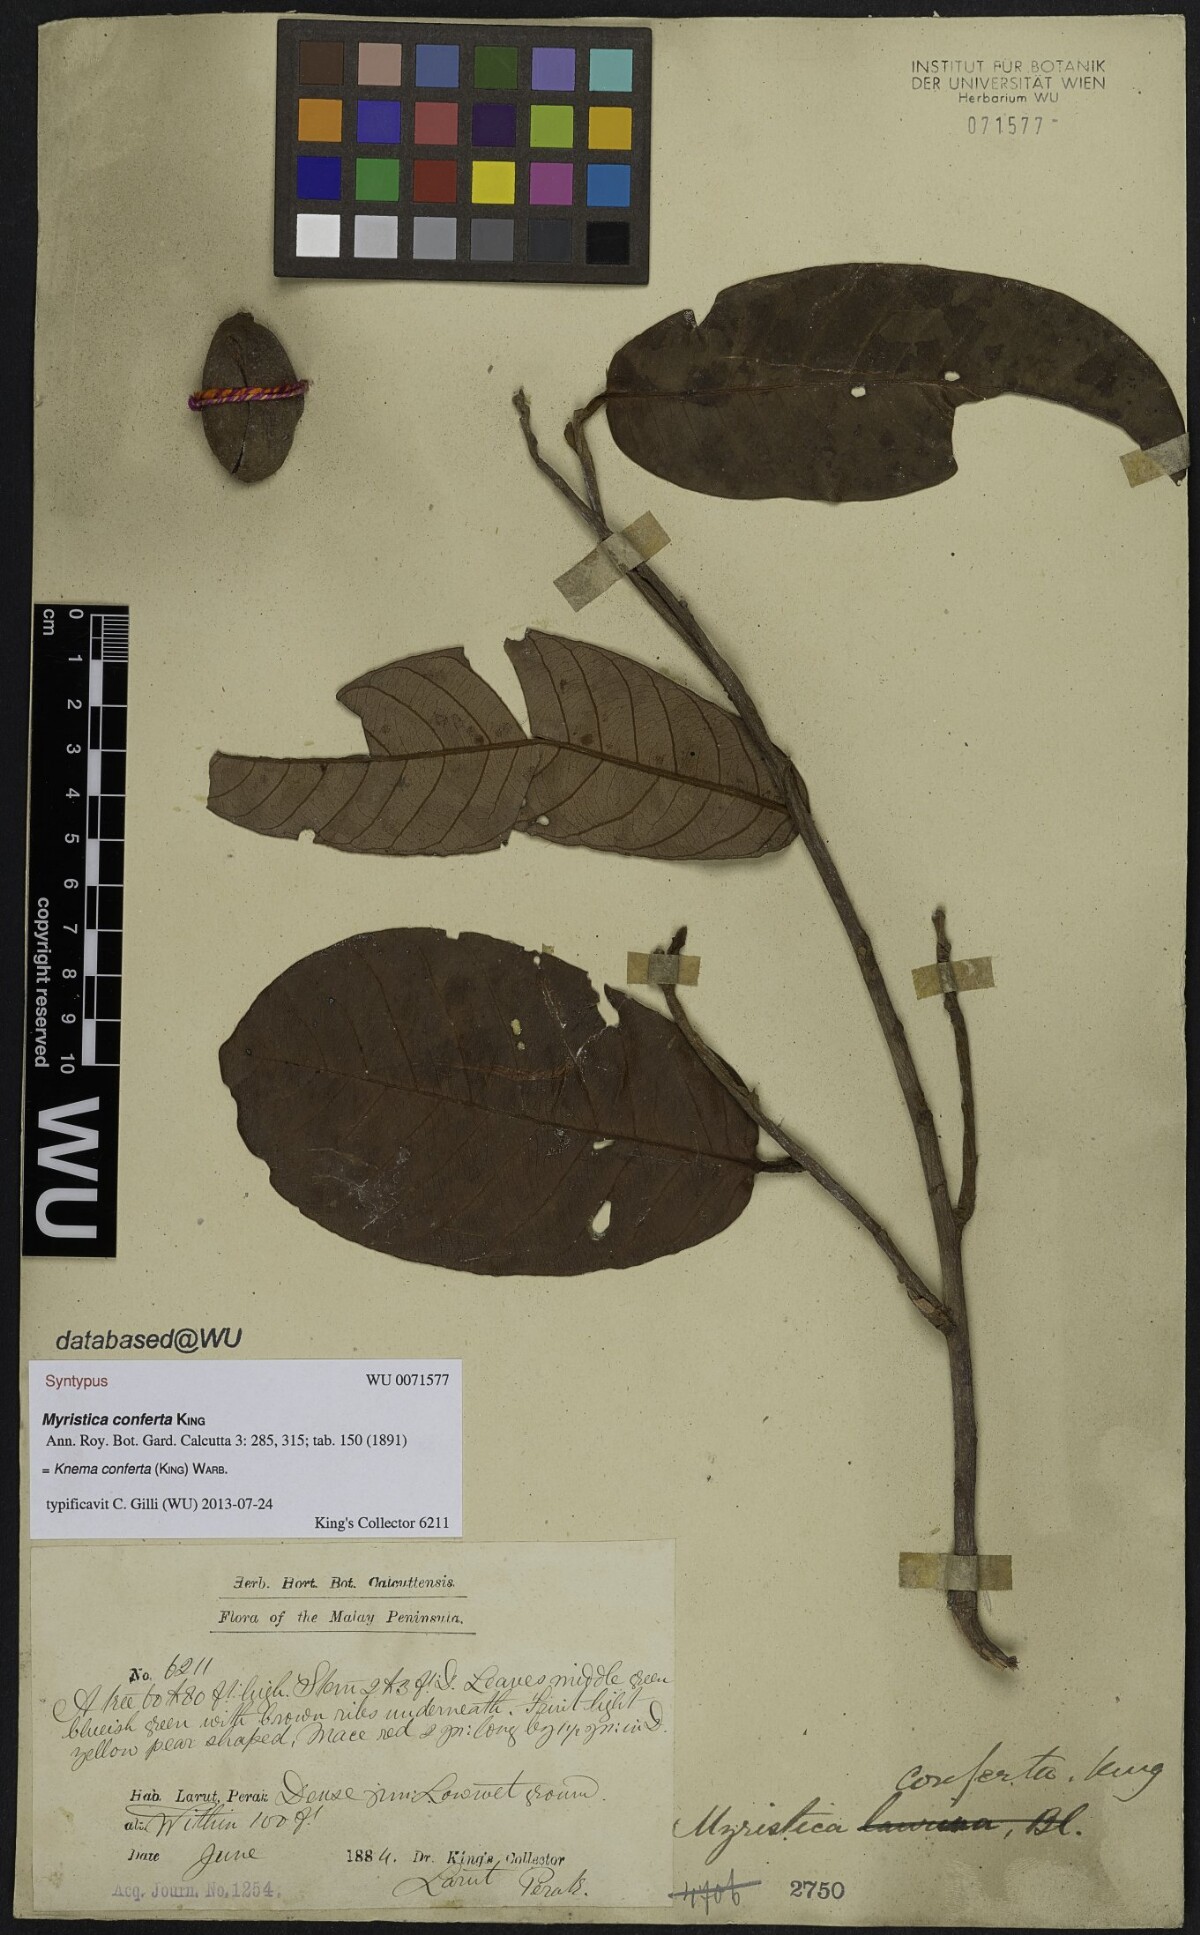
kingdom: Plantae
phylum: Tracheophyta
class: Magnoliopsida
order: Magnoliales
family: Myristicaceae
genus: Knema
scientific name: Knema conferta
